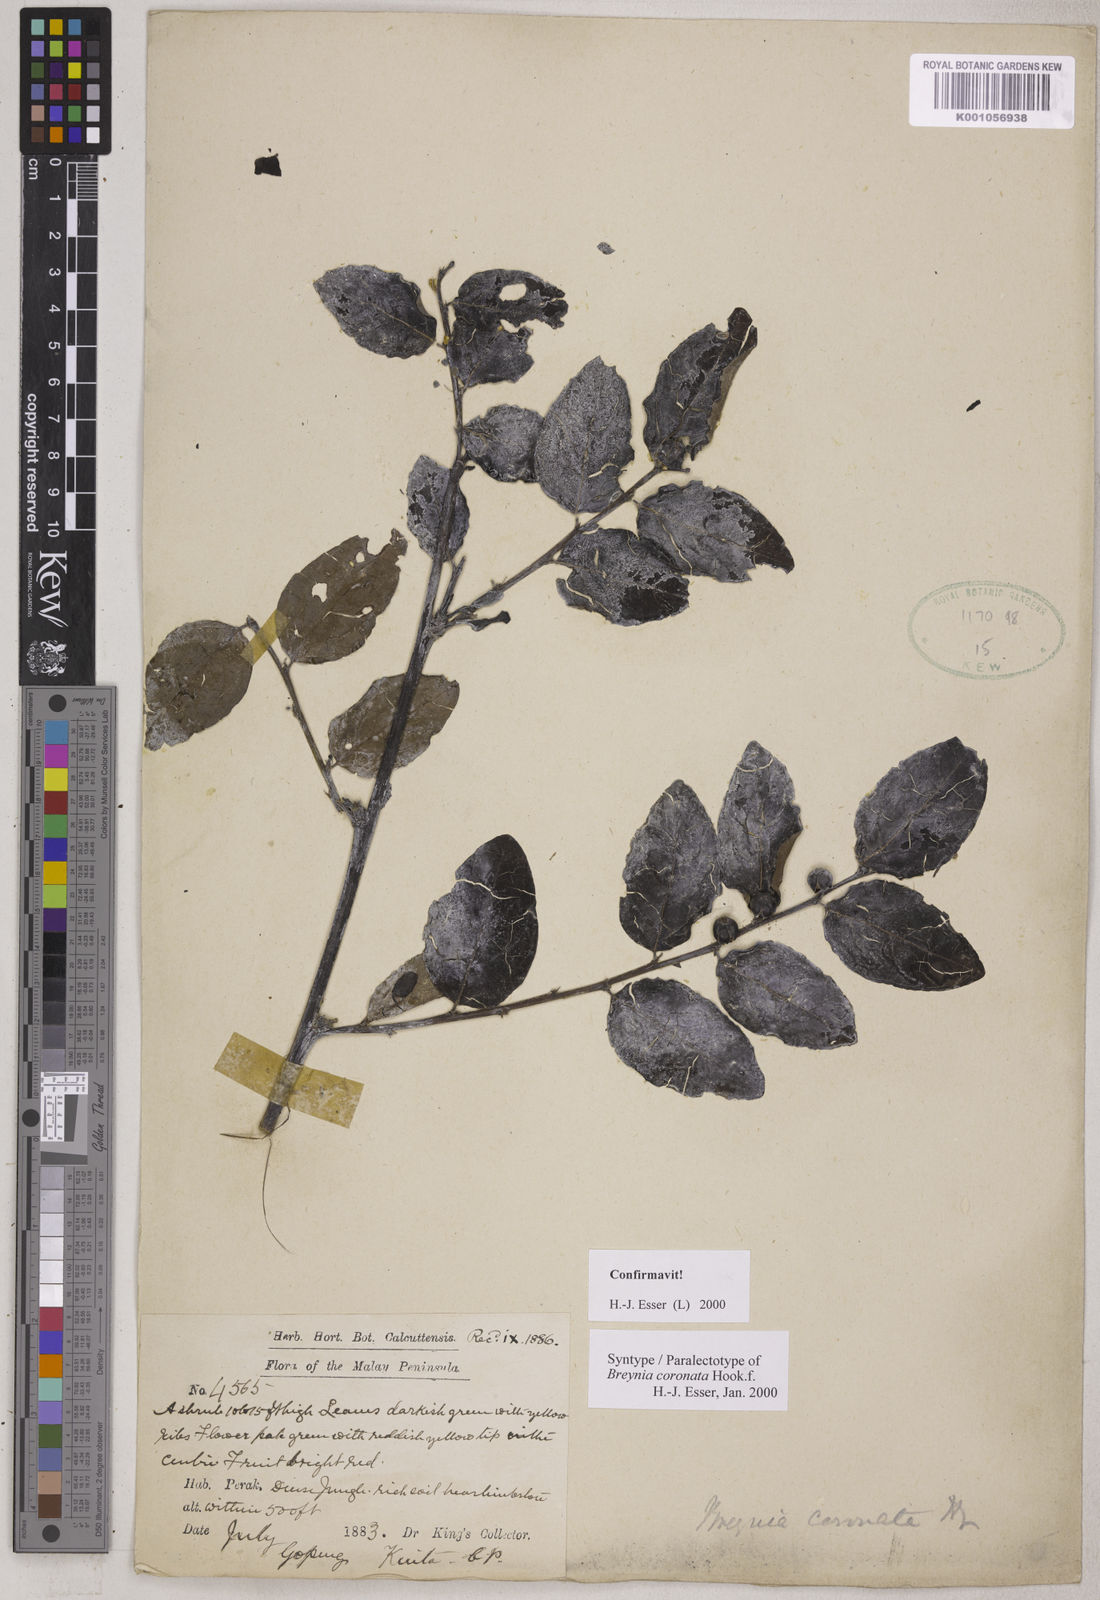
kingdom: Plantae
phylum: Tracheophyta
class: Magnoliopsida
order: Malpighiales
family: Phyllanthaceae
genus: Breynia
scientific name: Breynia coronata
